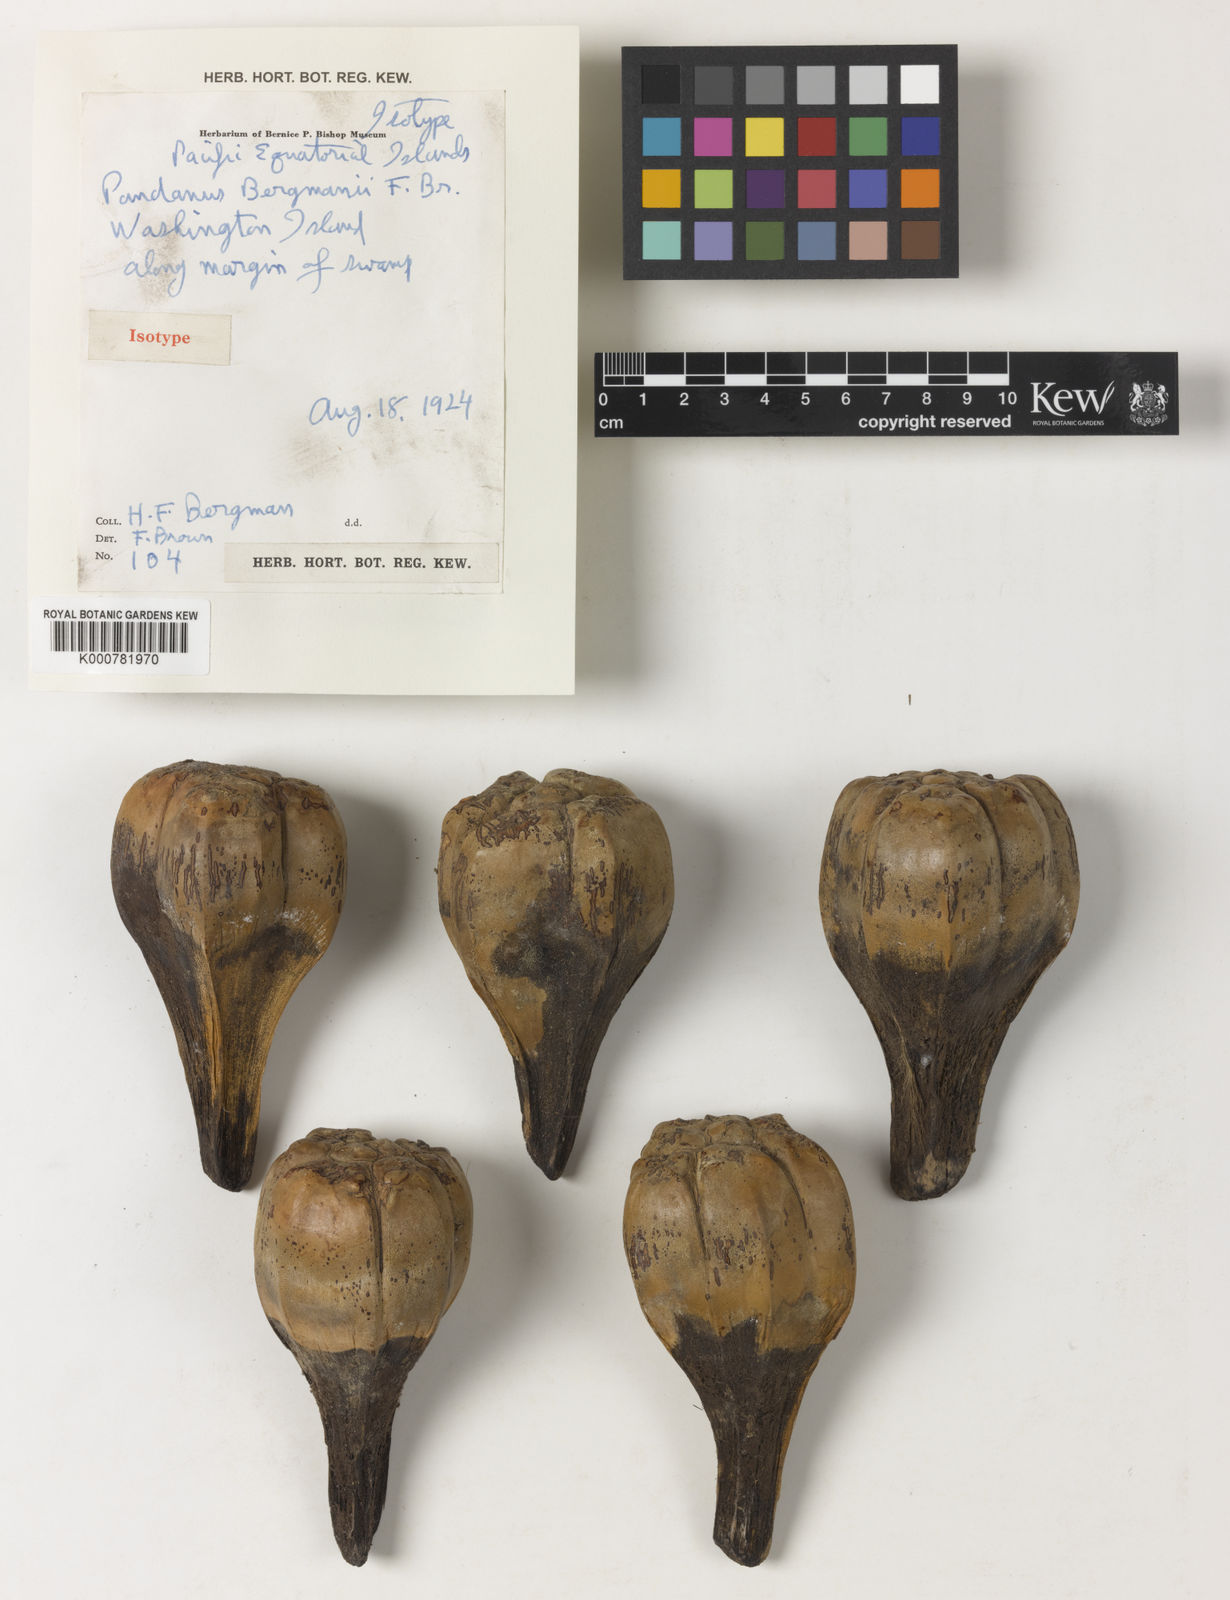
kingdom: Plantae
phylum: Tracheophyta
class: Liliopsida
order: Pandanales
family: Pandanaceae
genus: Pandanus
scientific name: Pandanus tectorius
